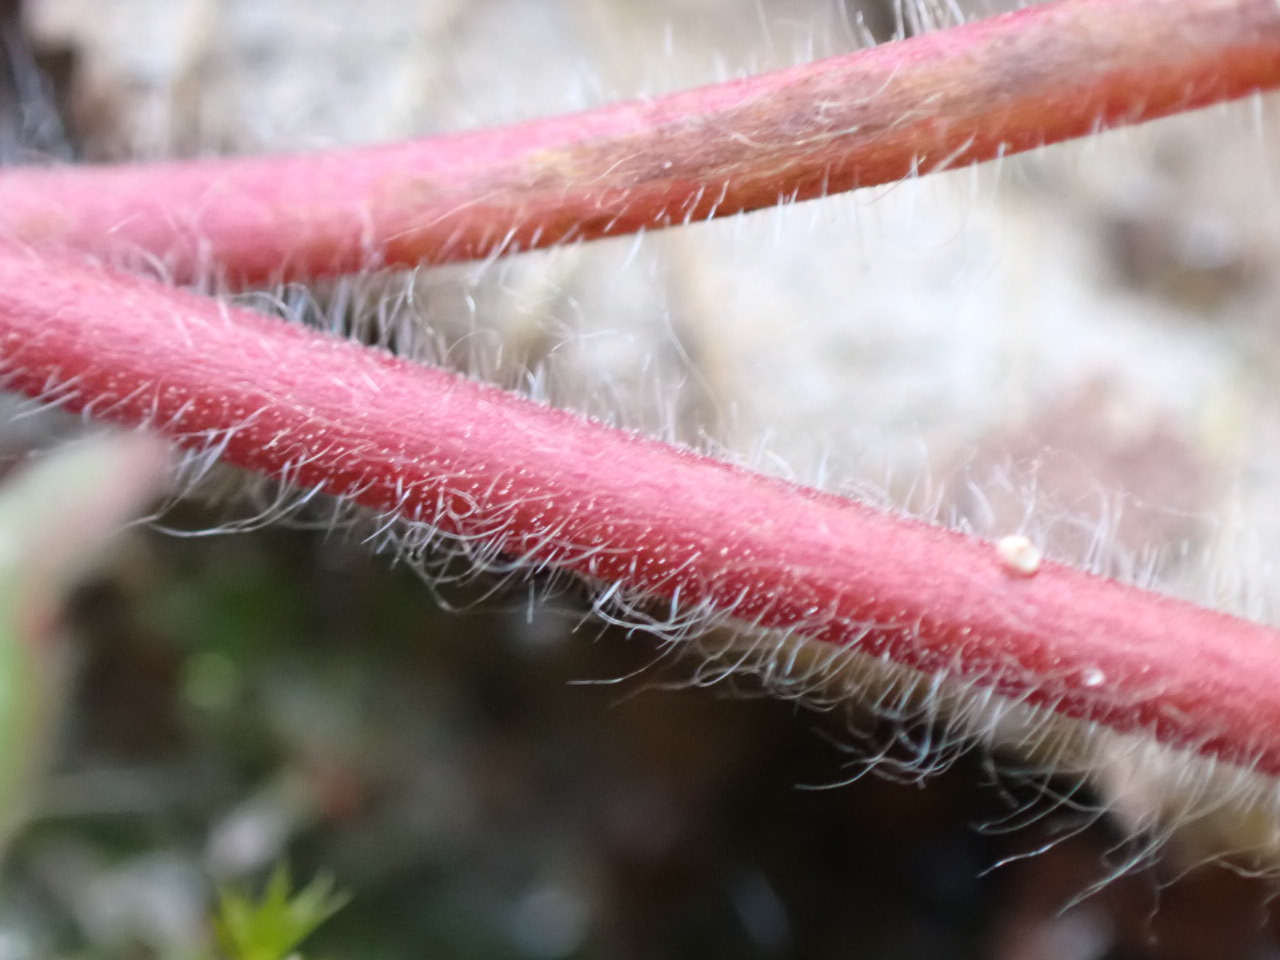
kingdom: Plantae
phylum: Tracheophyta
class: Magnoliopsida
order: Geraniales
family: Geraniaceae
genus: Geranium
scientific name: Geranium molle
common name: Blød storkenæb
